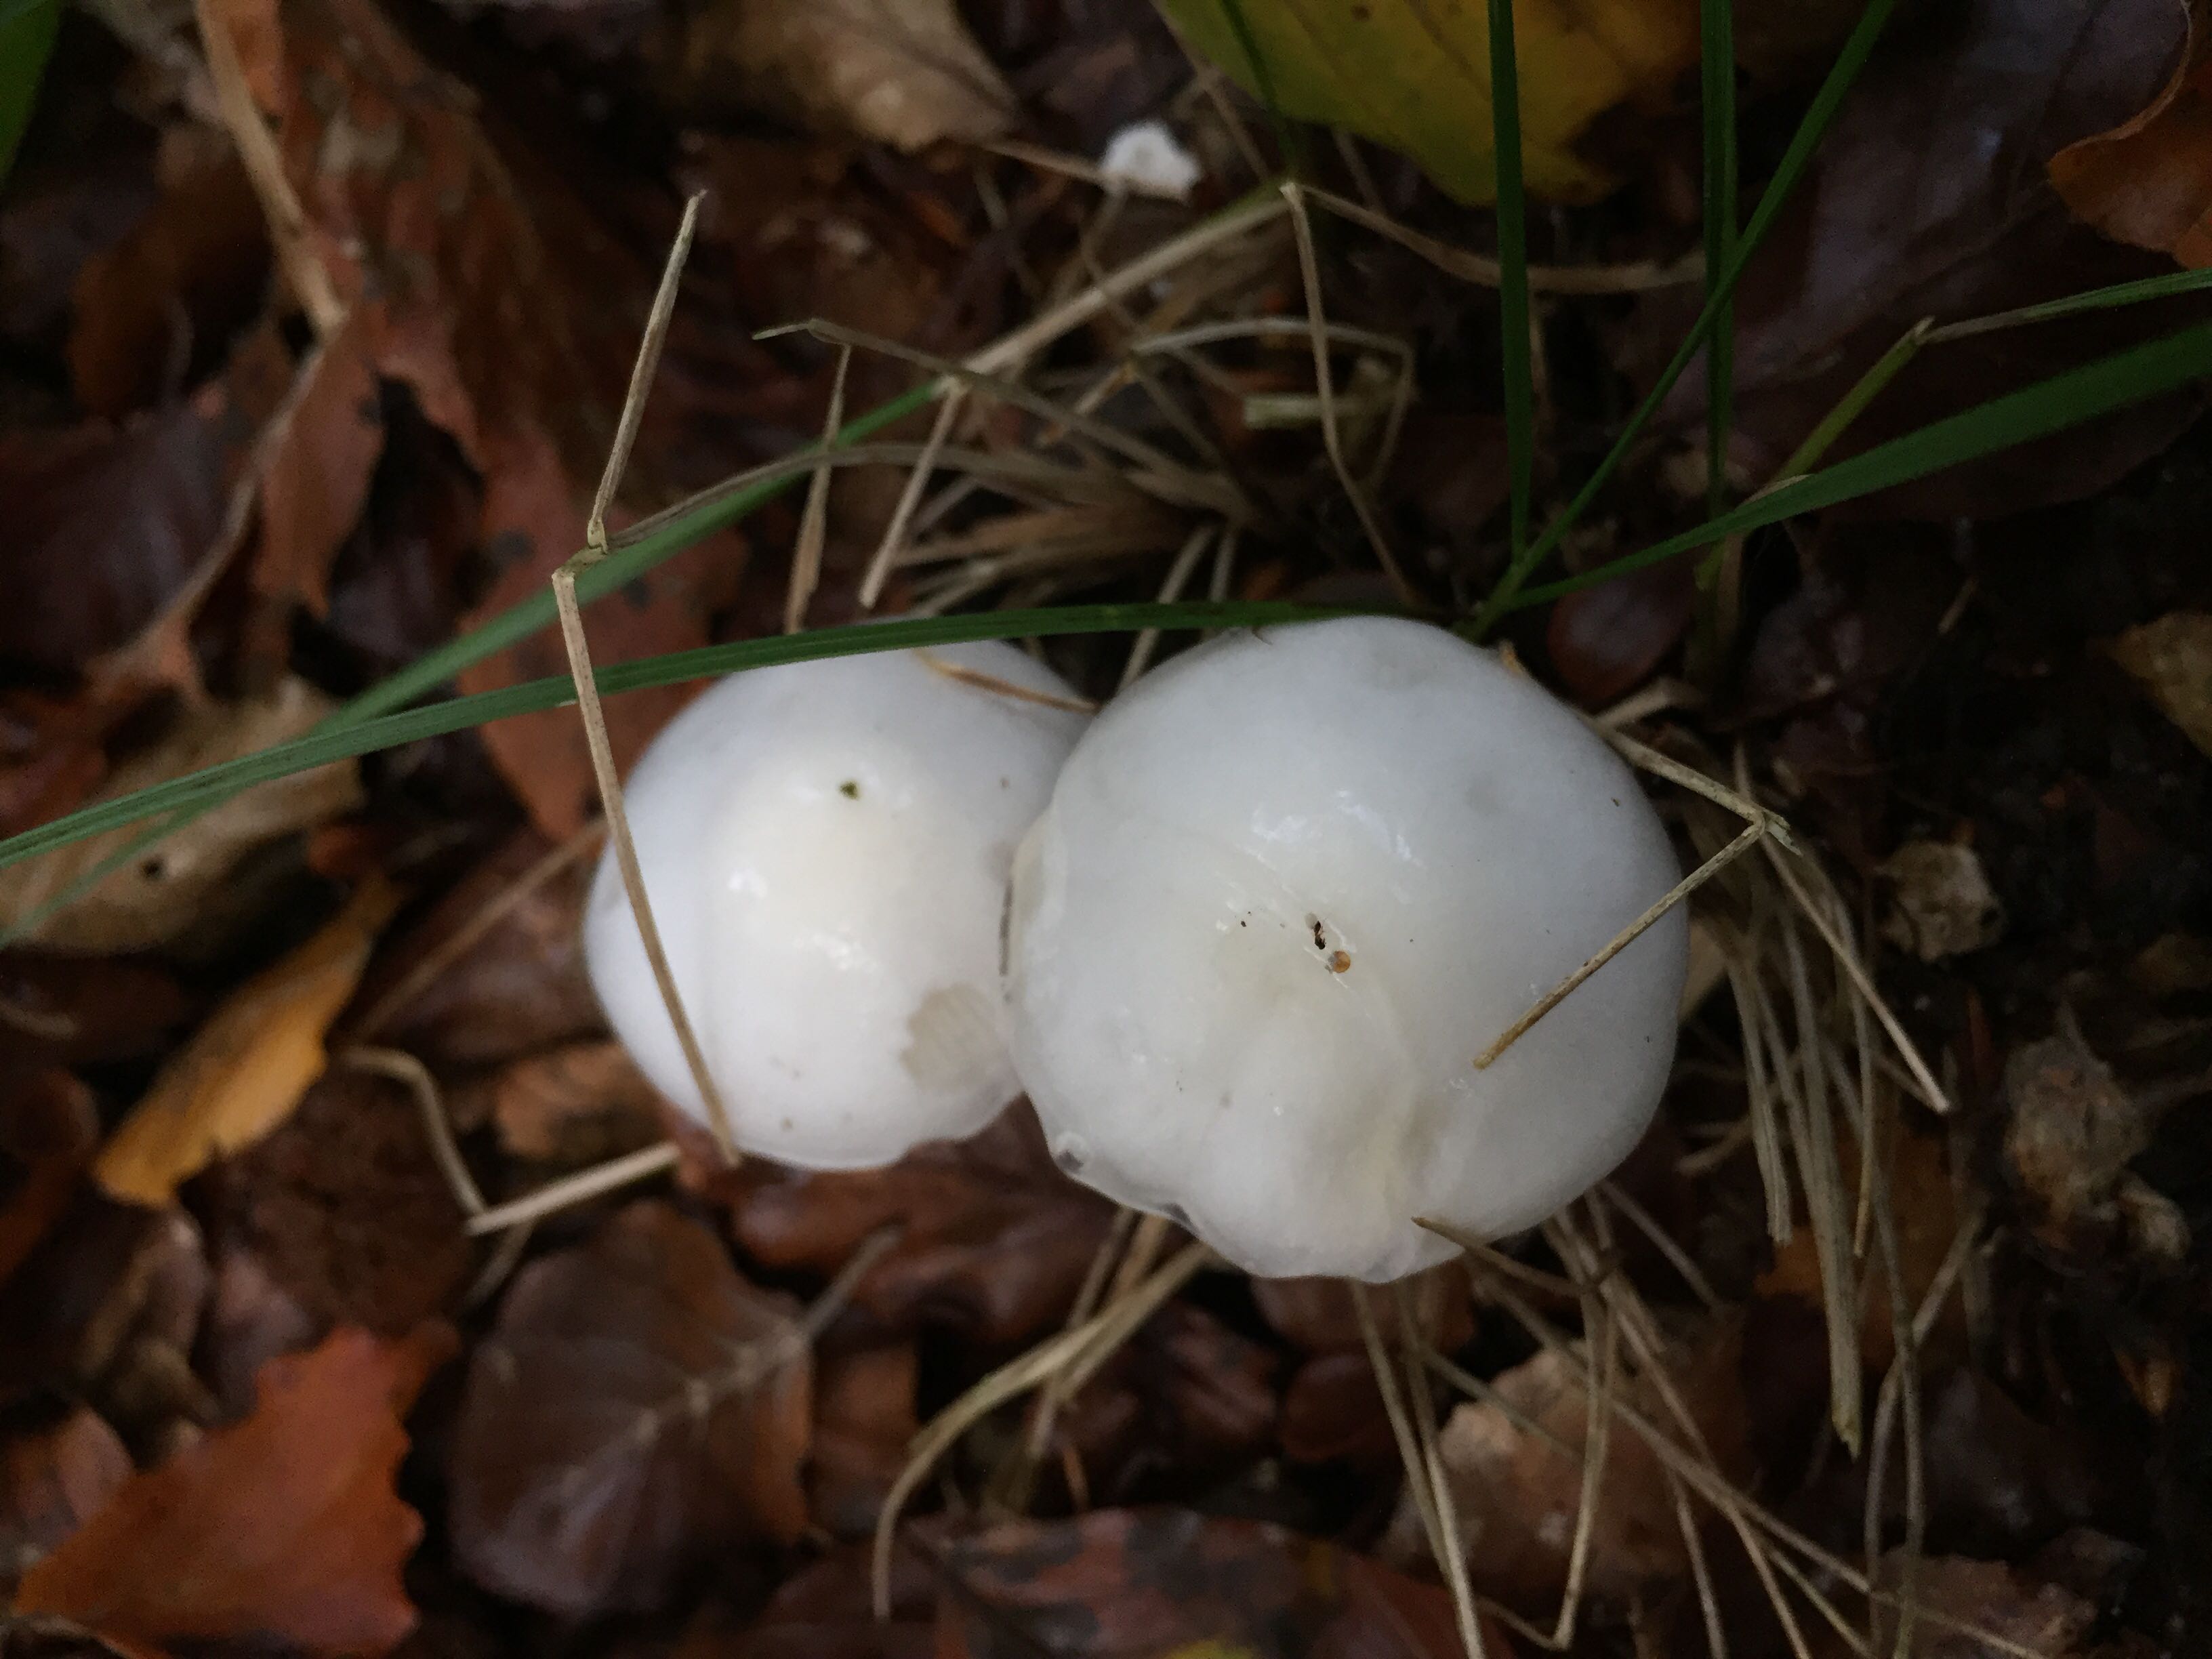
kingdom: Fungi
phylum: Basidiomycota
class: Agaricomycetes
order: Agaricales
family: Hygrophoraceae
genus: Hygrophorus
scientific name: Hygrophorus eburneus
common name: elfenbens-sneglehat
